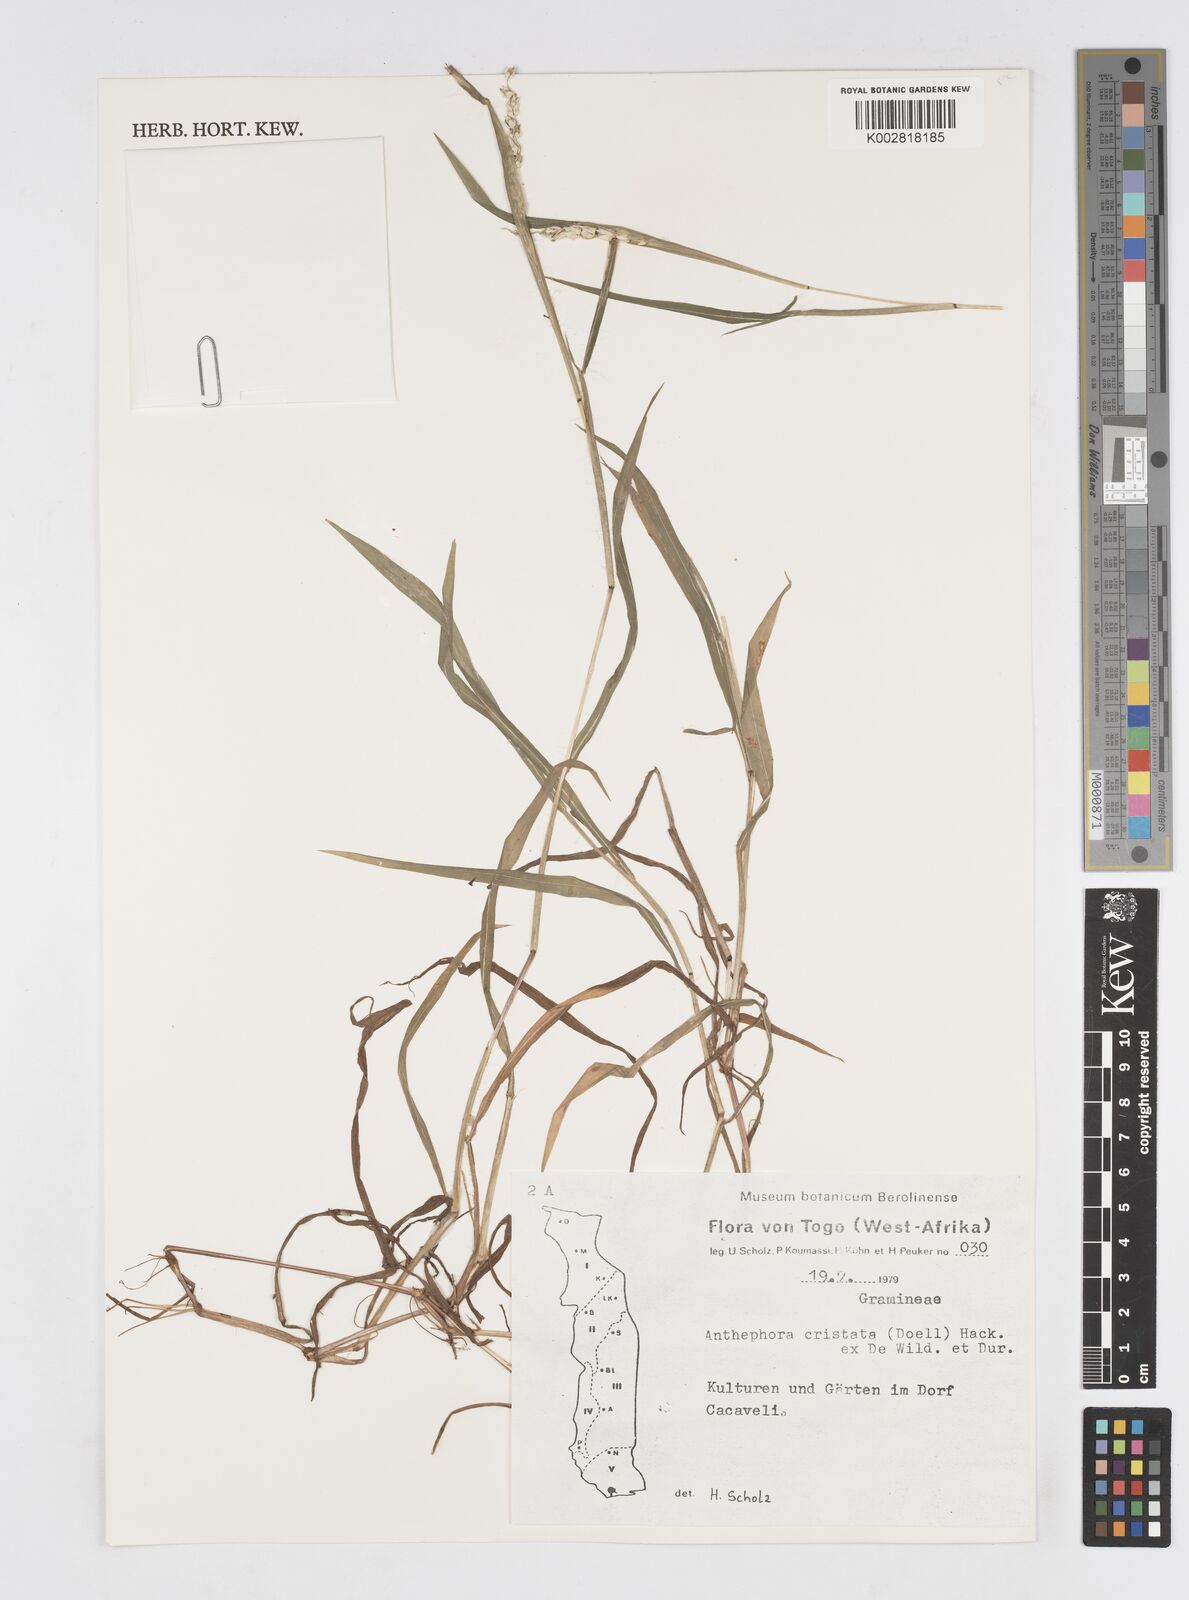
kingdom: Plantae
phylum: Tracheophyta
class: Liliopsida
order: Poales
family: Poaceae
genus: Anthephora
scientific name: Anthephora cristata
